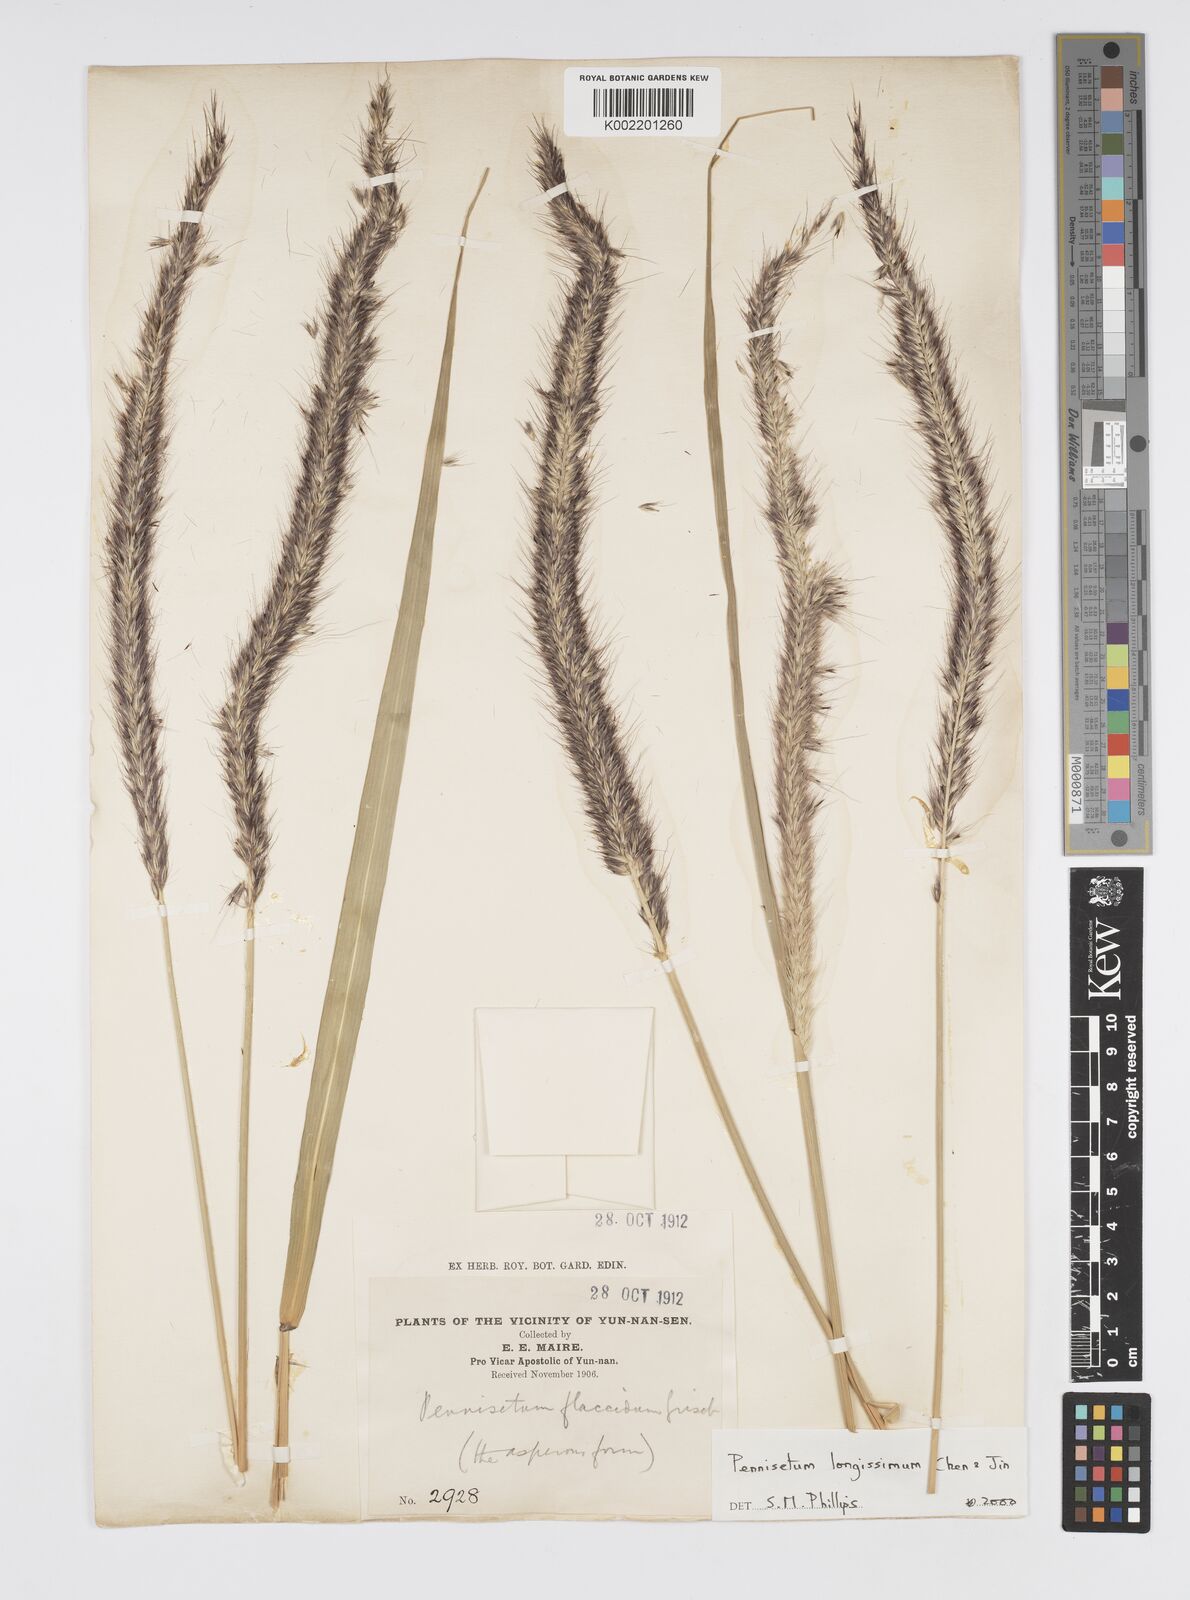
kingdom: Plantae
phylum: Tracheophyta
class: Liliopsida
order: Poales
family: Poaceae
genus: Cenchrus
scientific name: Cenchrus longissimus
